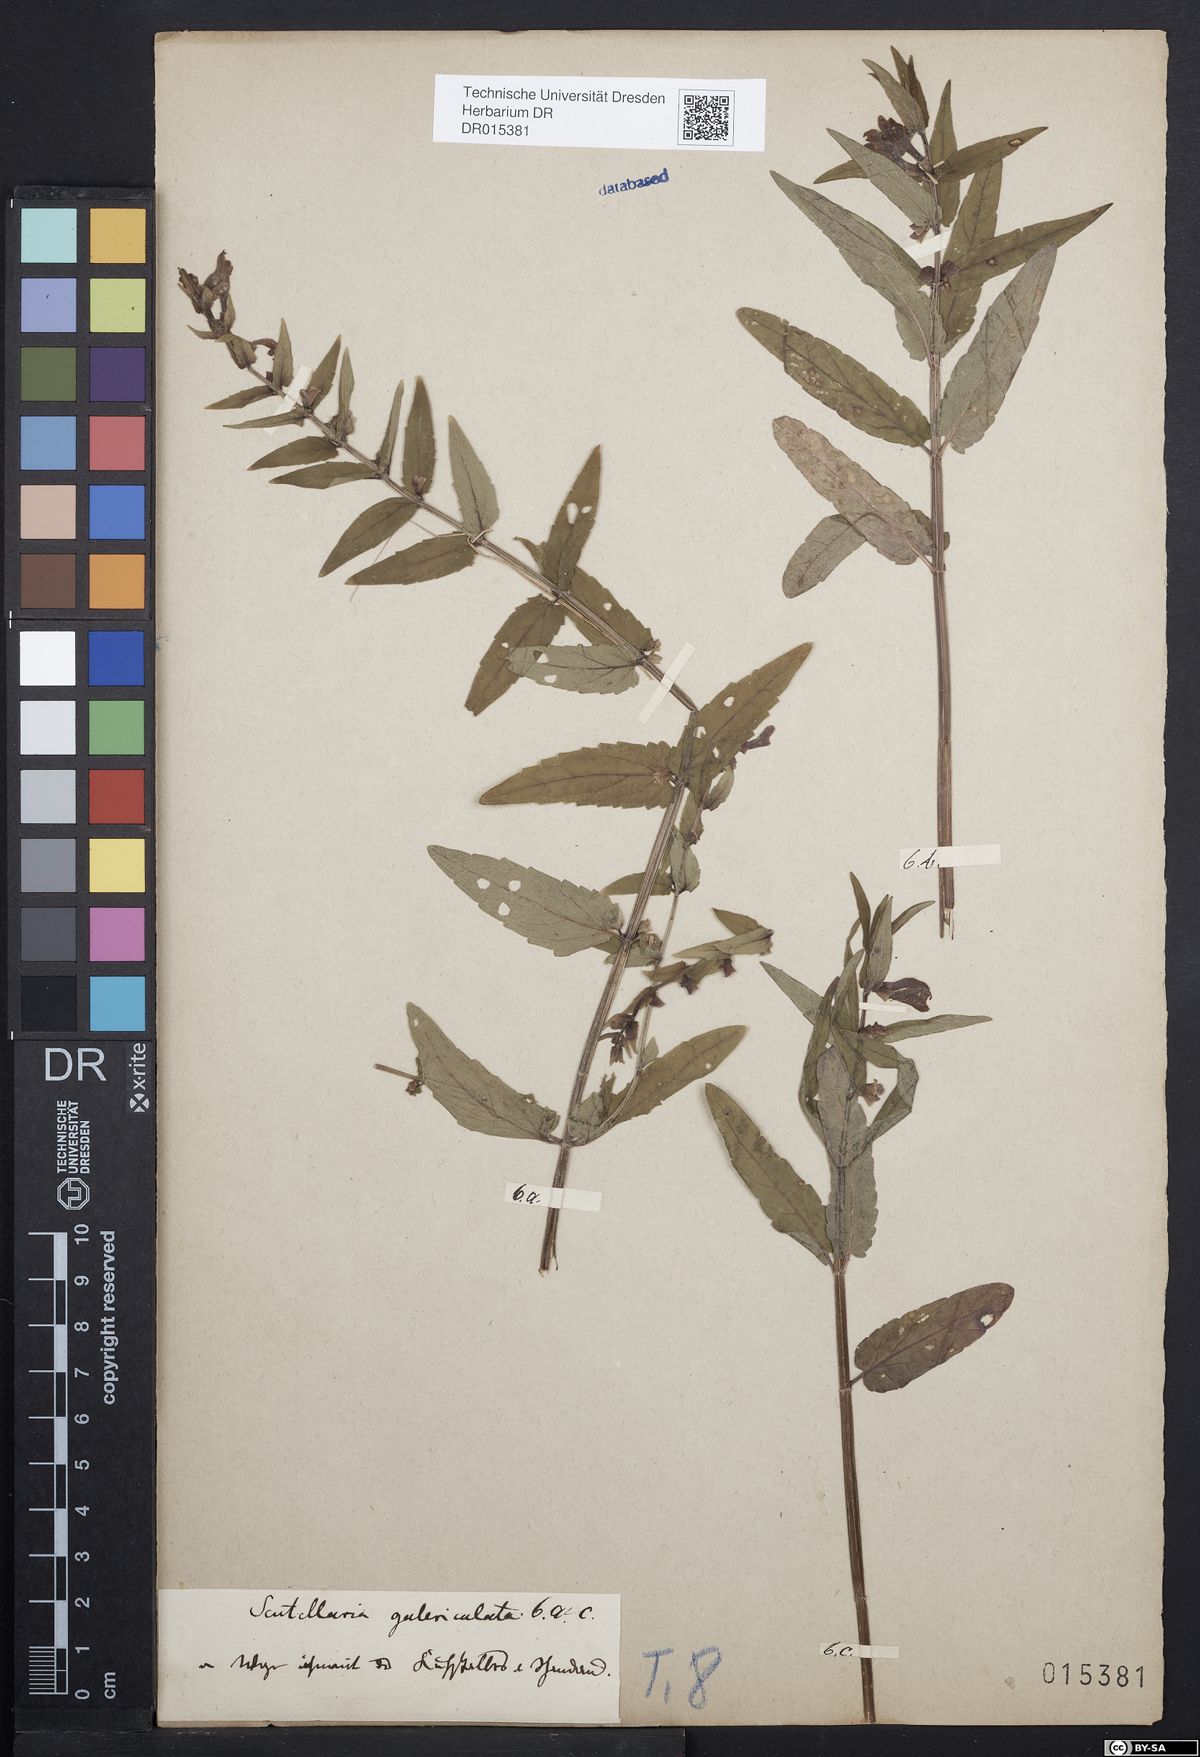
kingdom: Plantae
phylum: Tracheophyta
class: Magnoliopsida
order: Lamiales
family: Lamiaceae
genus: Scutellaria
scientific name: Scutellaria galericulata
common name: Skullcap
